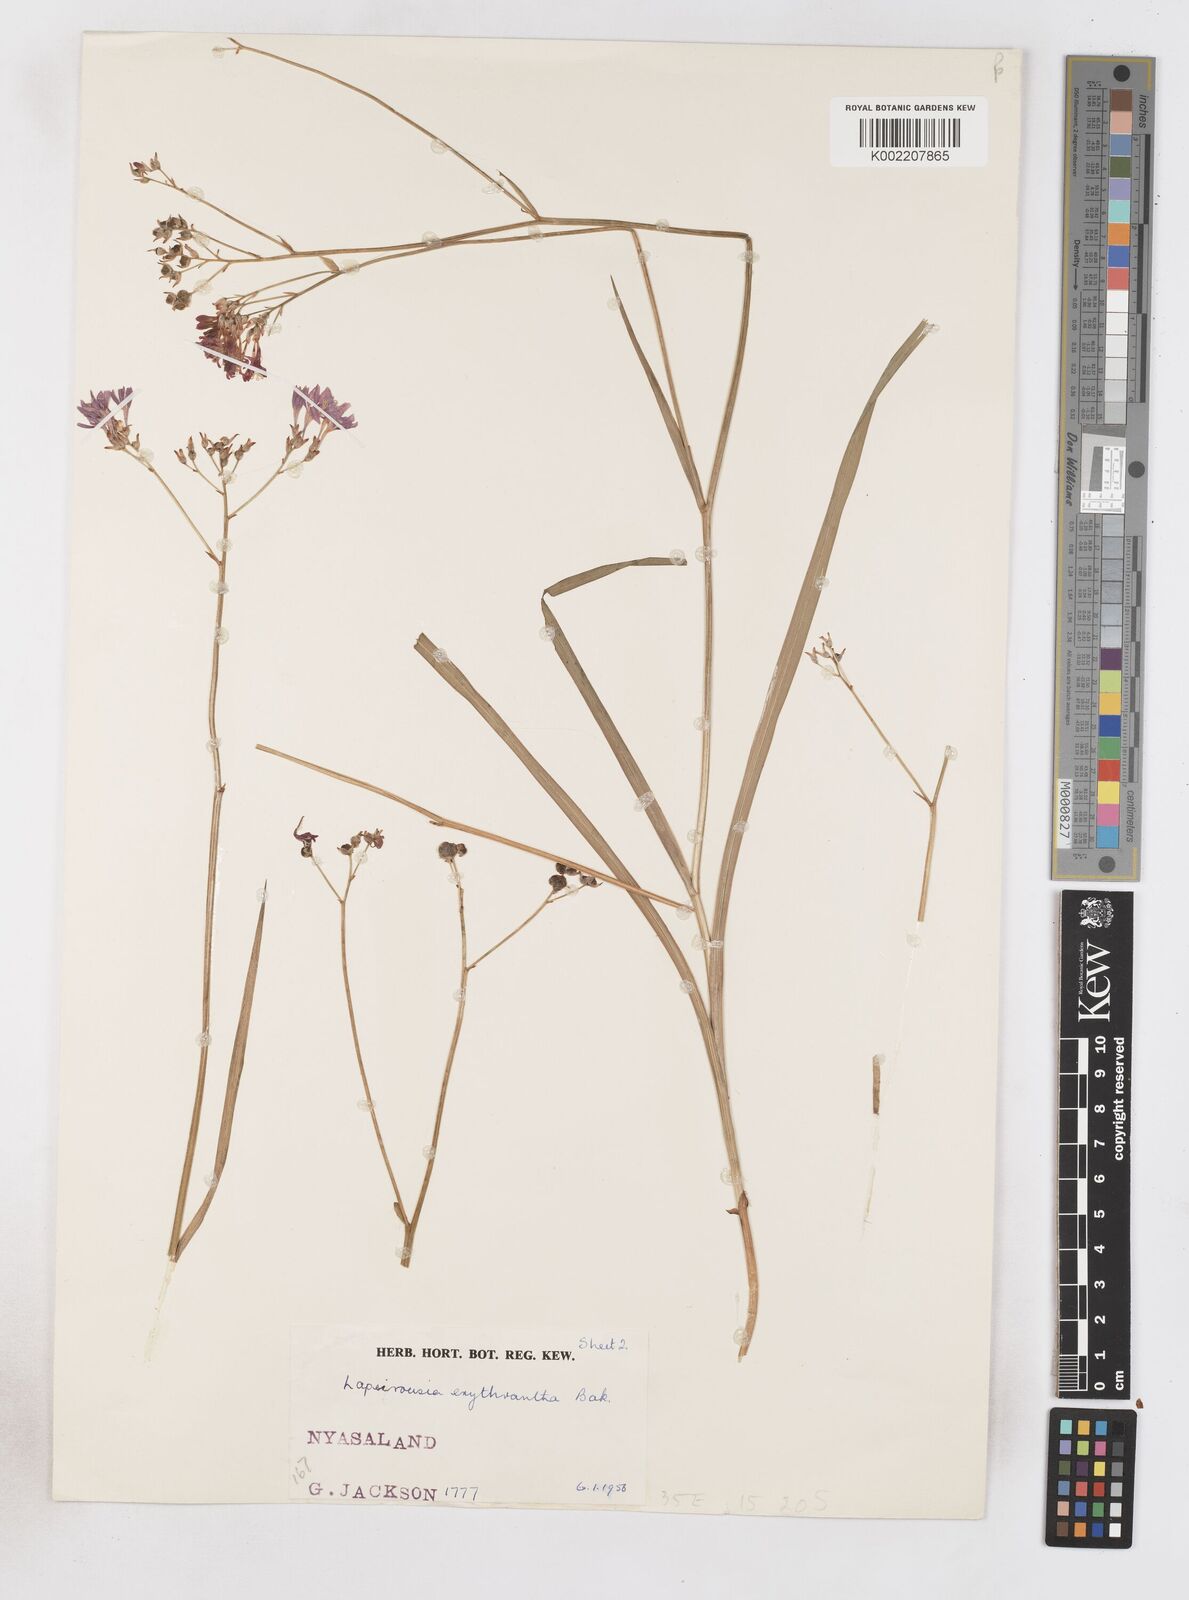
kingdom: Plantae
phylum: Tracheophyta
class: Liliopsida
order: Asparagales
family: Iridaceae
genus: Afrosolen
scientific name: Afrosolen erythranthus
